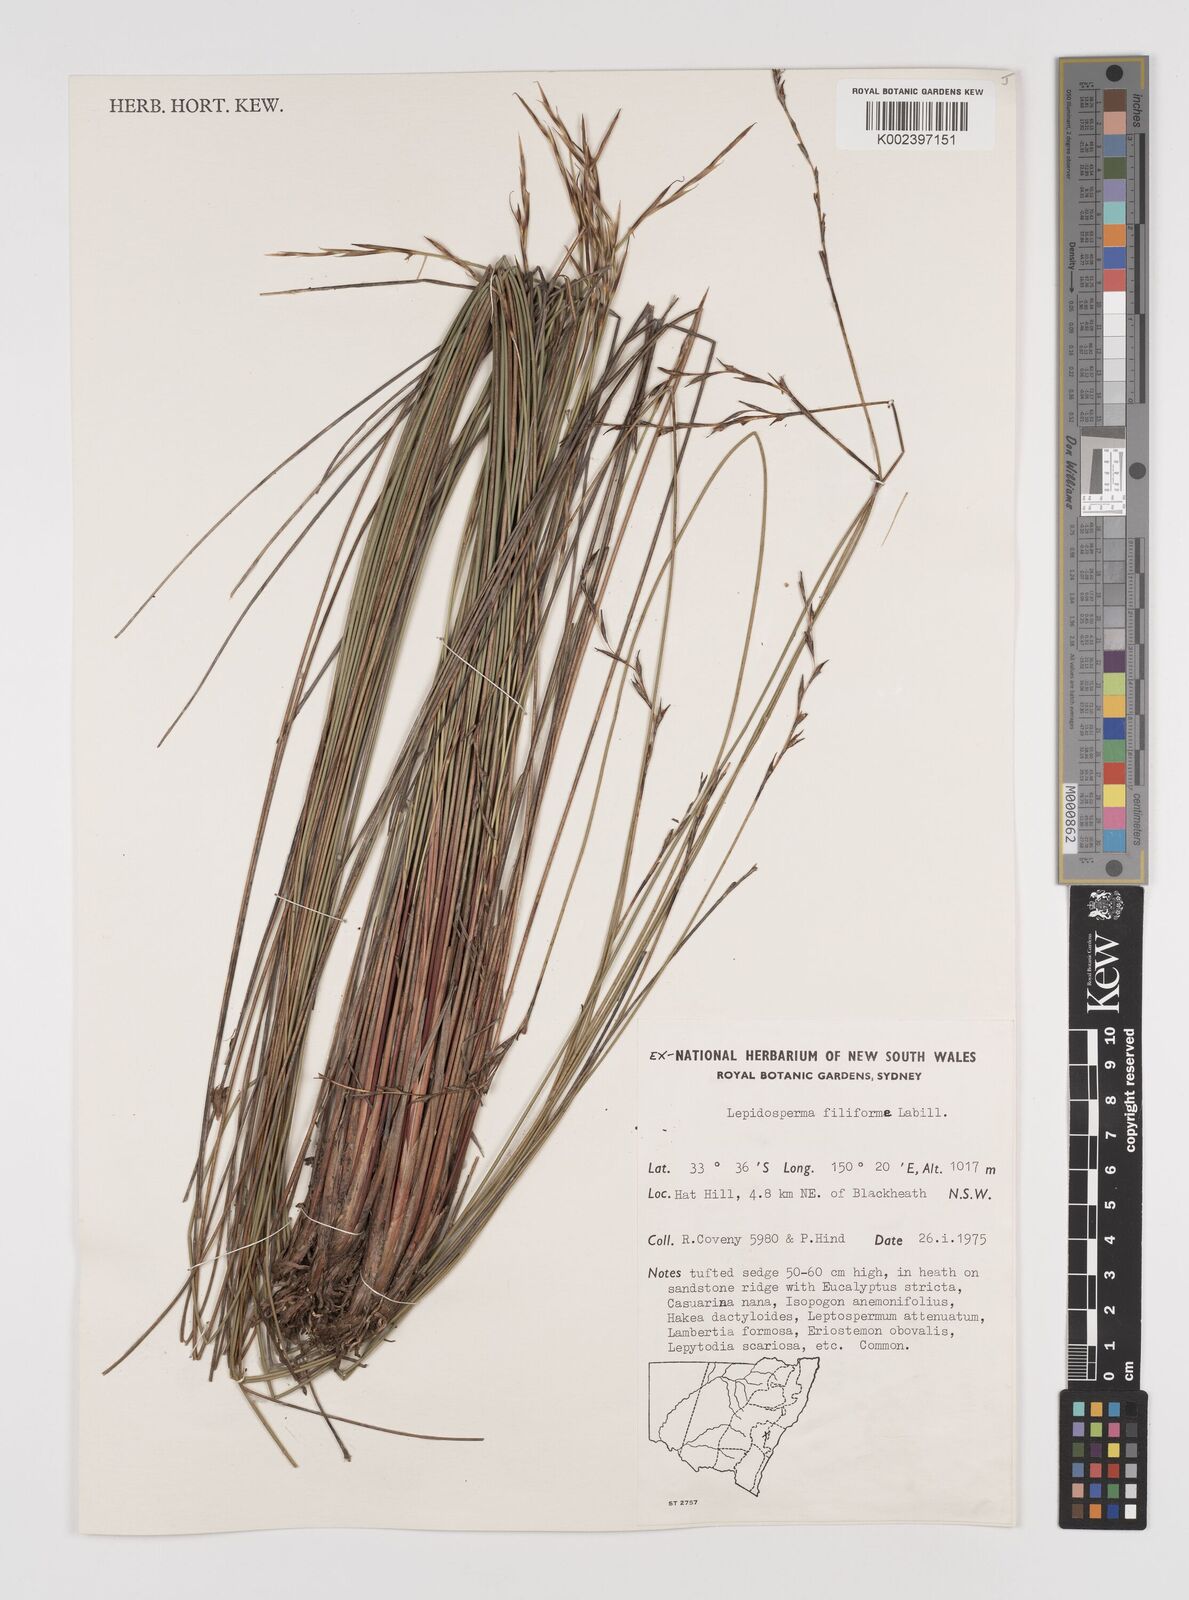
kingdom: Plantae
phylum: Tracheophyta
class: Liliopsida
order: Poales
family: Cyperaceae
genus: Lepidosperma
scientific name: Lepidosperma filiforme
